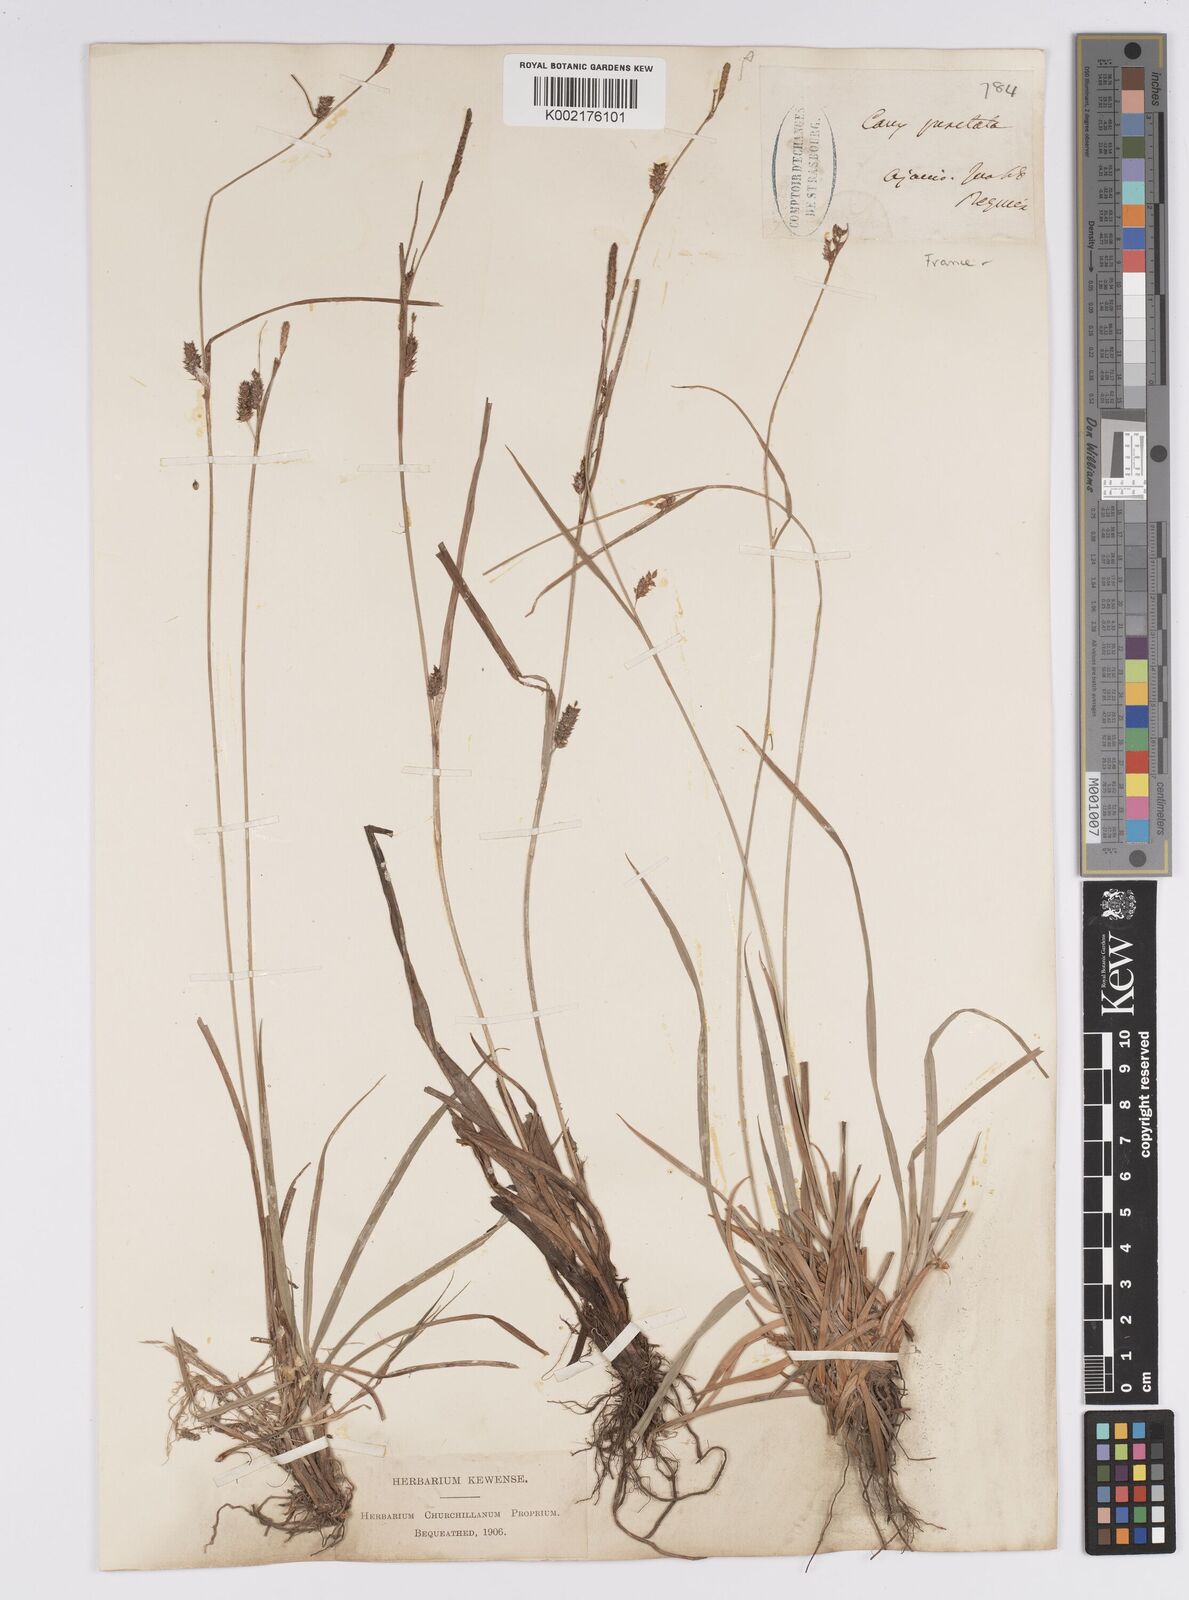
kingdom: Plantae
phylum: Tracheophyta
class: Liliopsida
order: Poales
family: Cyperaceae
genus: Carex
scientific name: Carex punctata
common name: Dotted sedge
